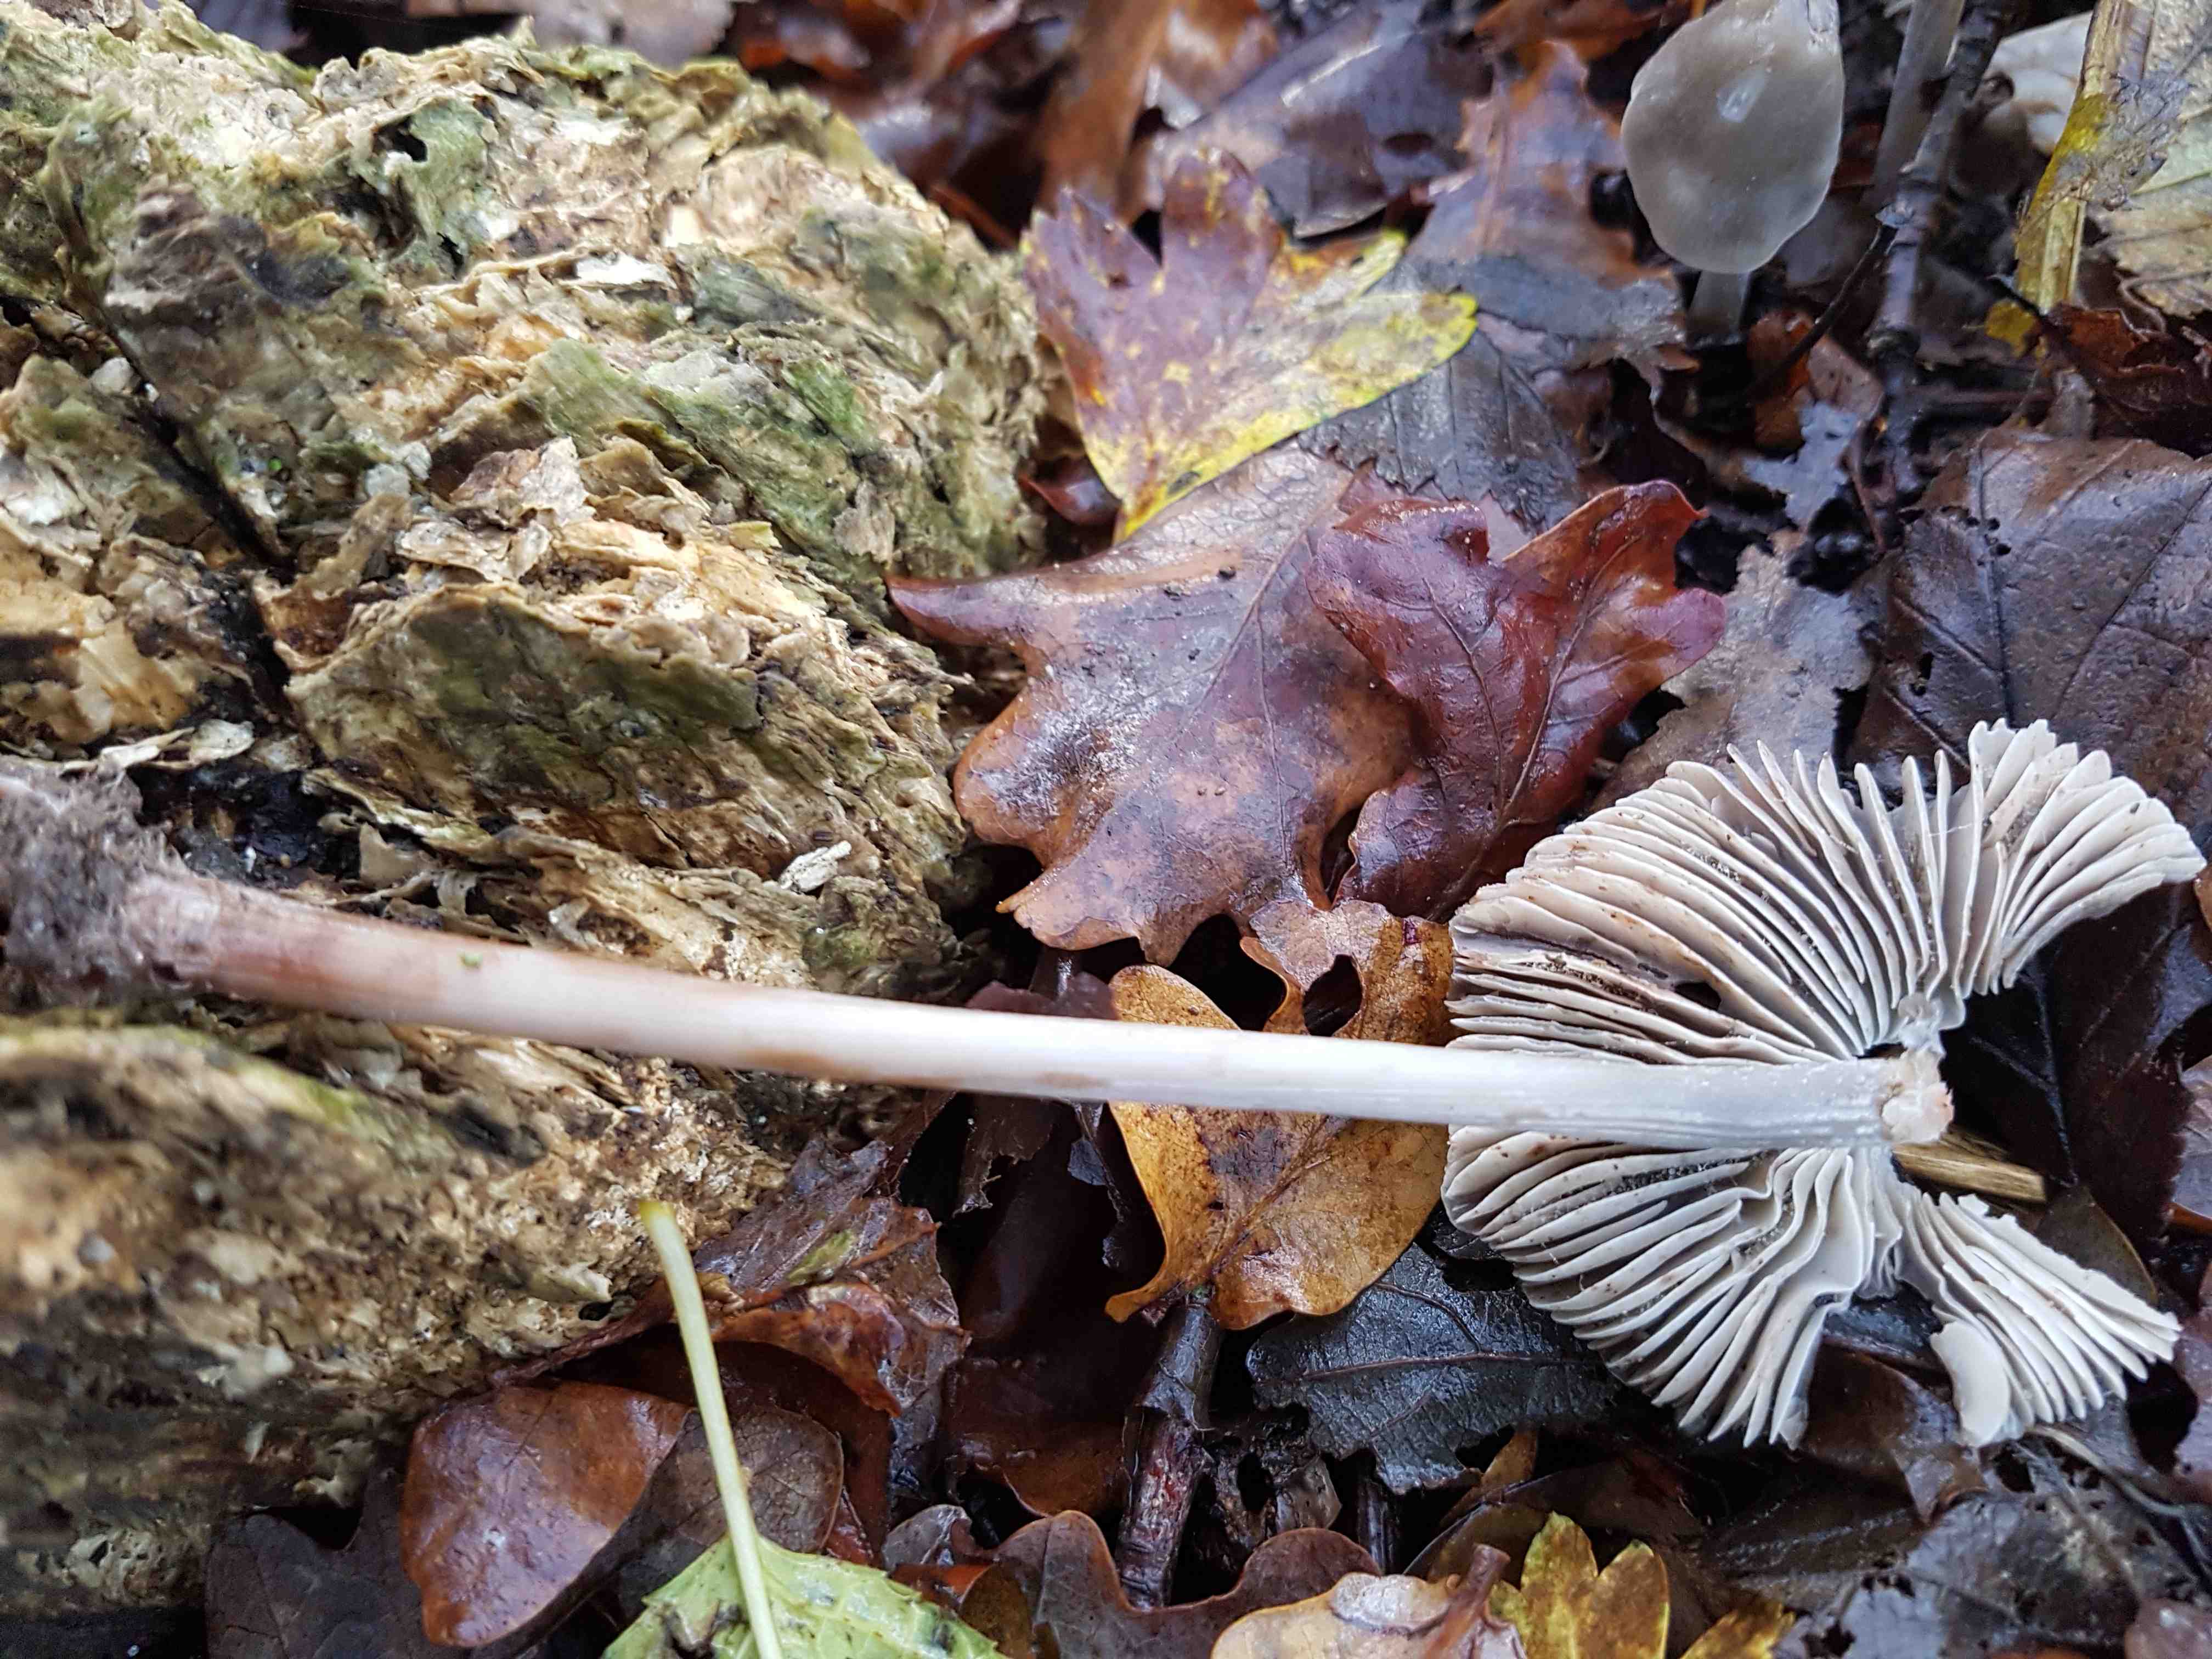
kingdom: Fungi
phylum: Basidiomycota
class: Agaricomycetes
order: Agaricales
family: Mycenaceae
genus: Mycena
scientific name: Mycena polygramma
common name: mangestribet huesvamp
